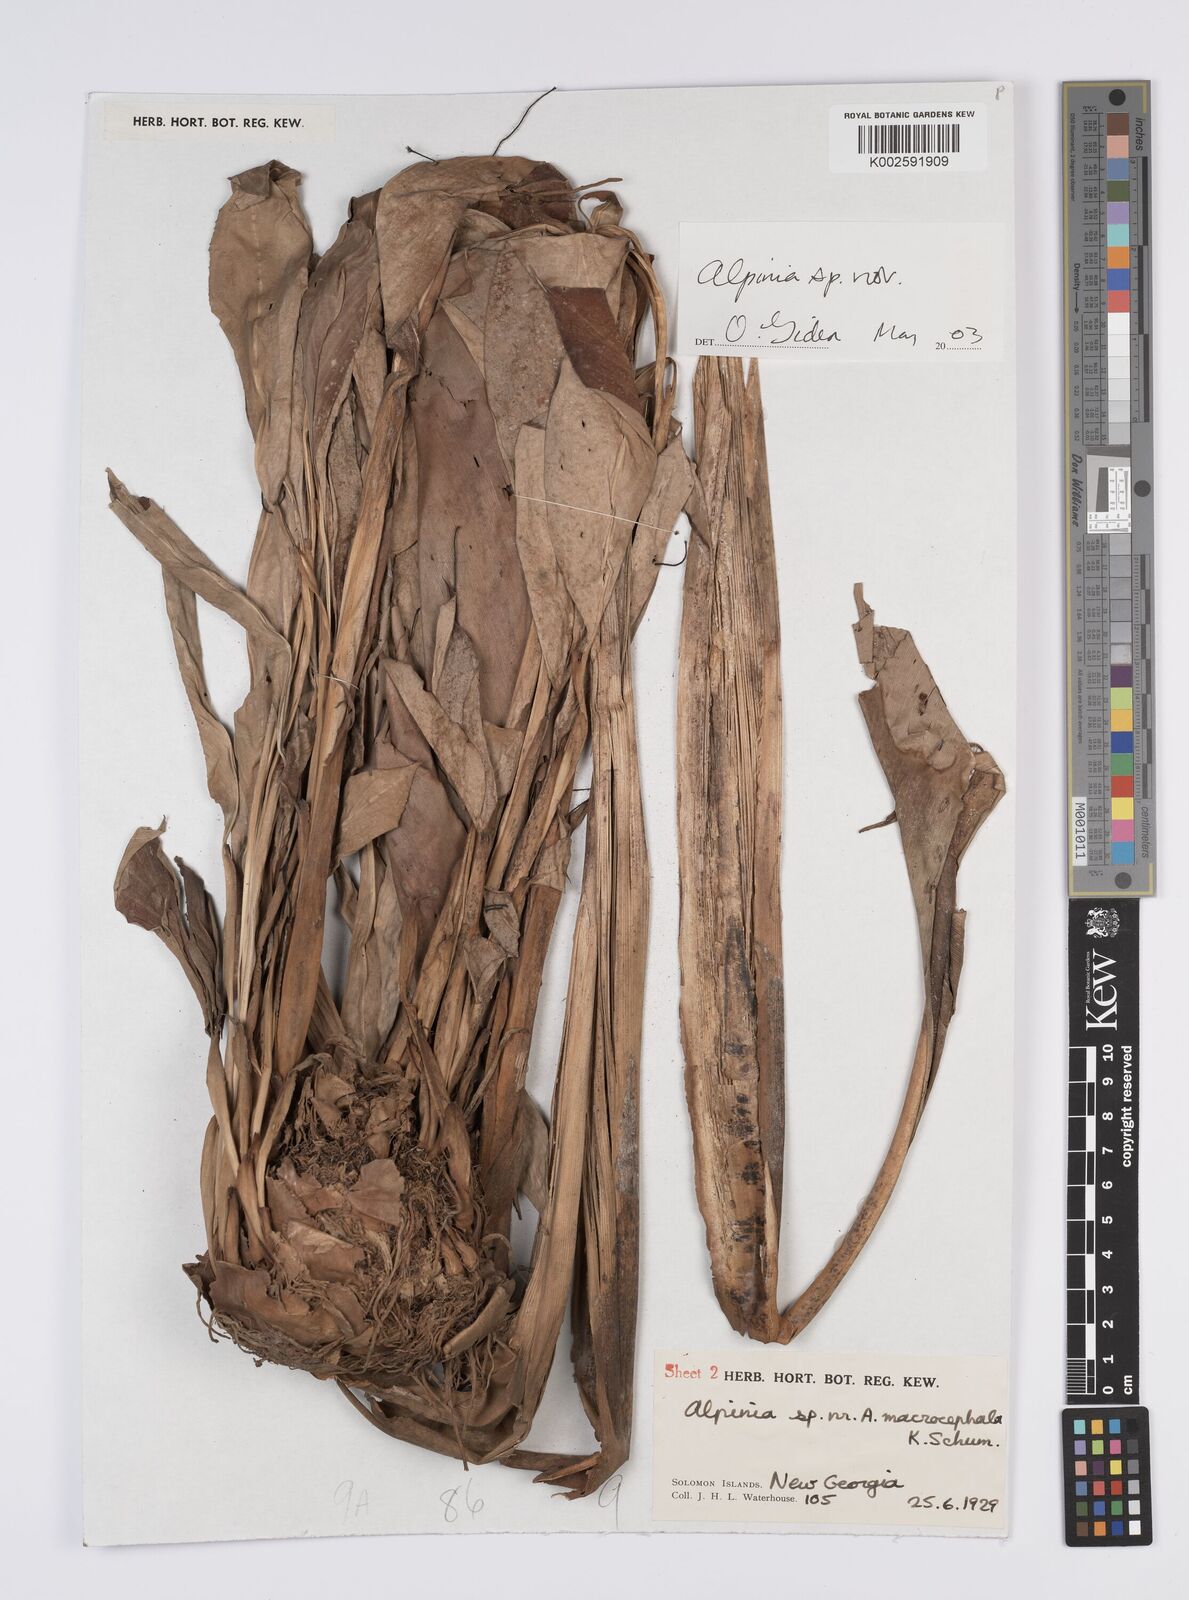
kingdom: Plantae
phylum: Tracheophyta
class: Liliopsida
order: Zingiberales
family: Zingiberaceae
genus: Alpinia
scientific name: Alpinia macrocephala
